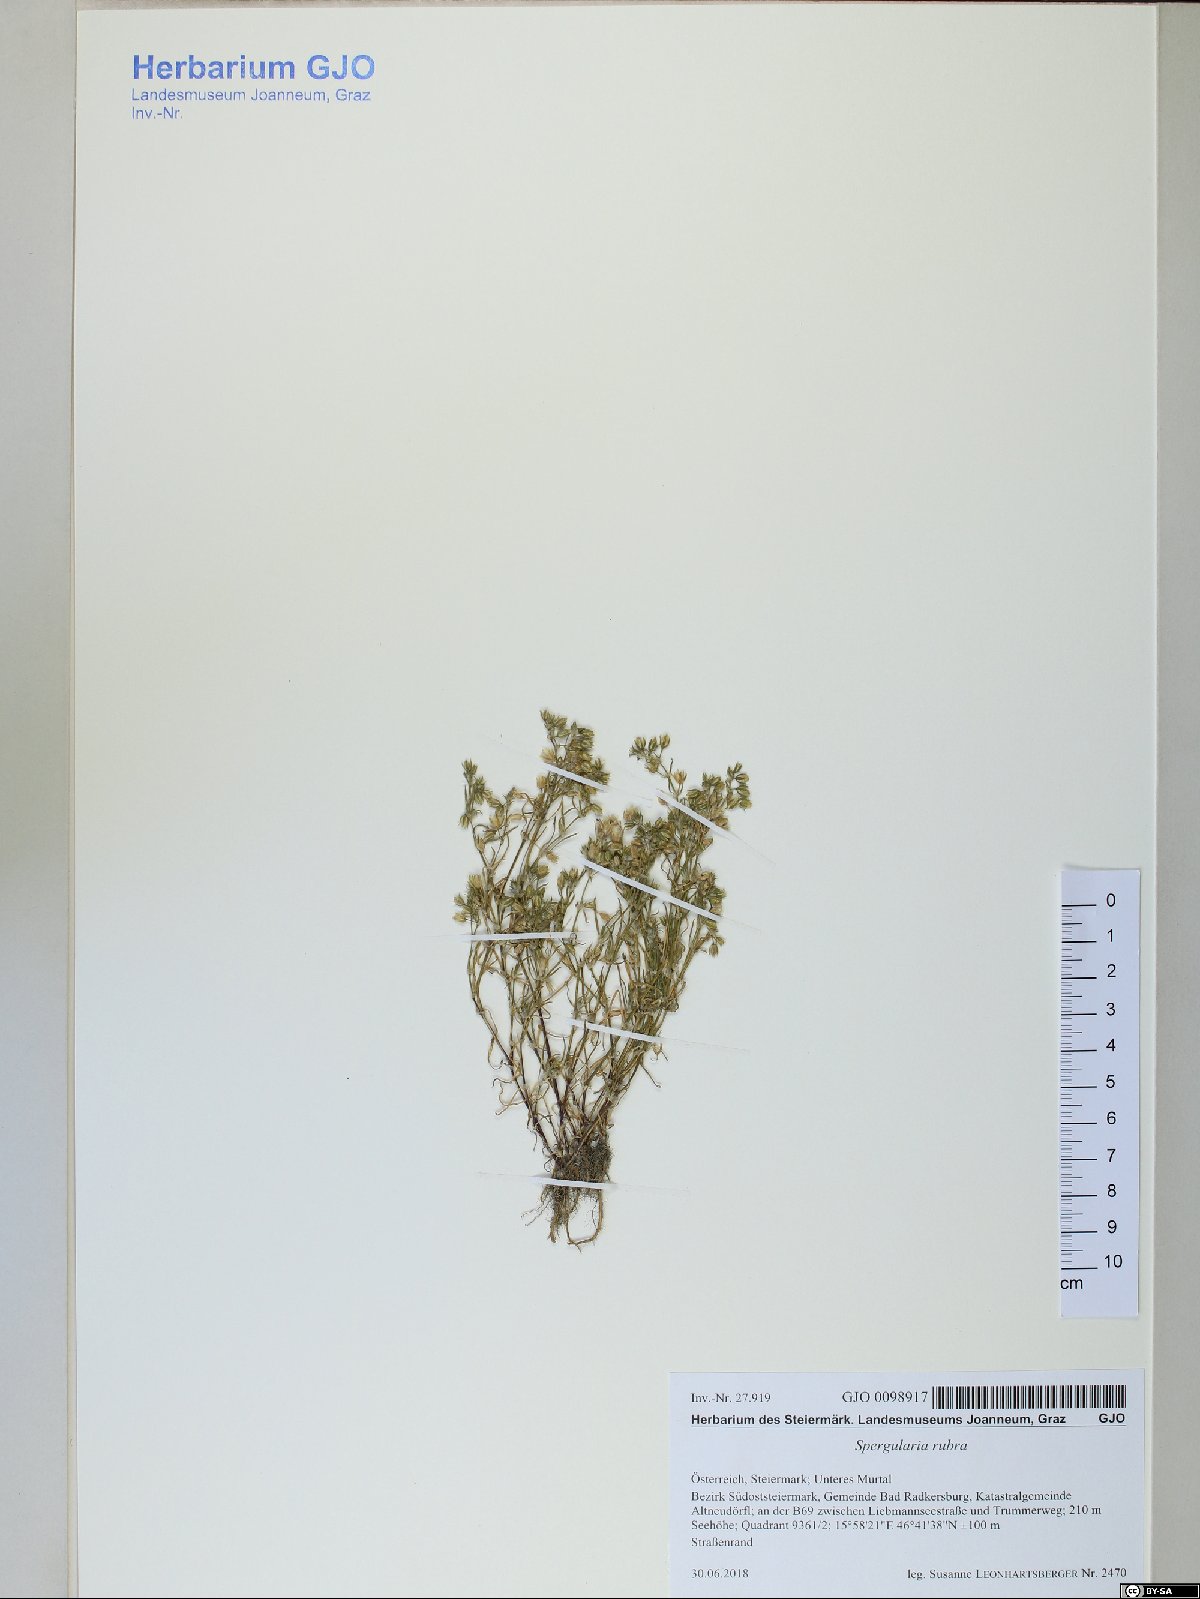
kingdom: Plantae
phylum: Tracheophyta
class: Magnoliopsida
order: Caryophyllales
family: Caryophyllaceae
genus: Spergularia
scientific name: Spergularia rubra
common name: Red sand-spurrey
